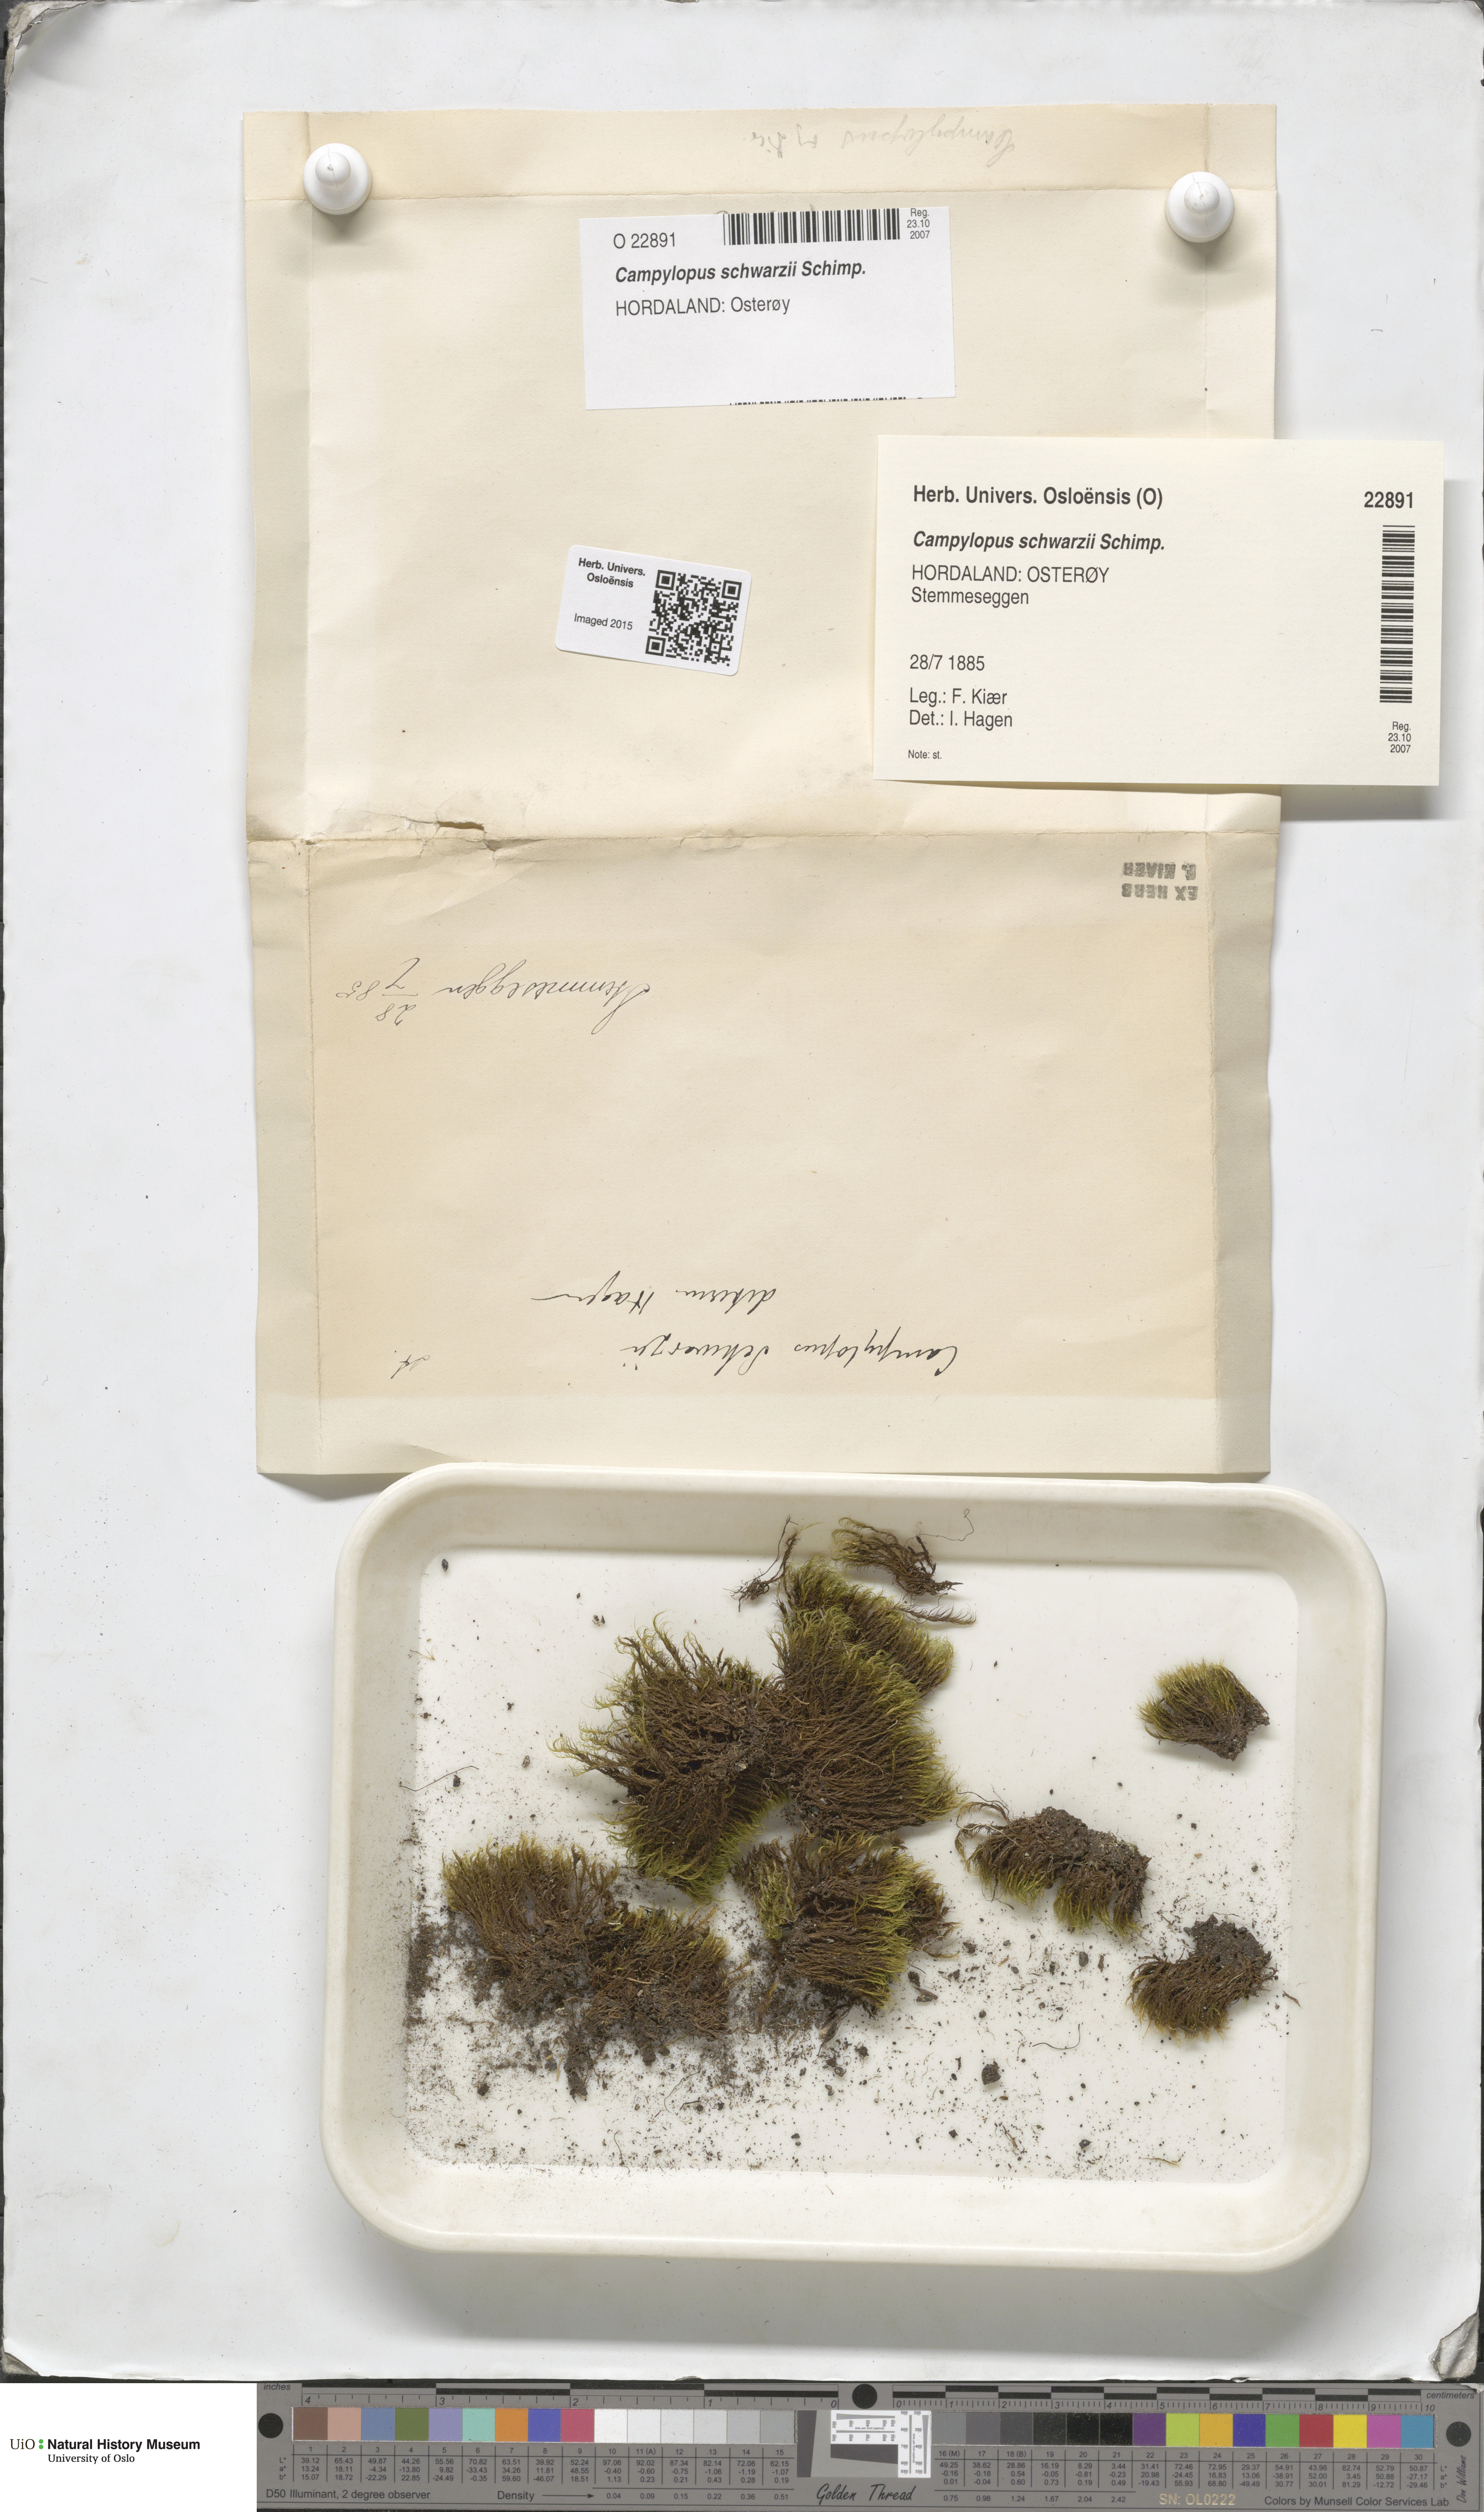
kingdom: Plantae
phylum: Bryophyta
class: Bryopsida
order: Dicranales
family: Leucobryaceae
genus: Campylopus
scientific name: Campylopus gracilis
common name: Schwarz's swan-neck moss
